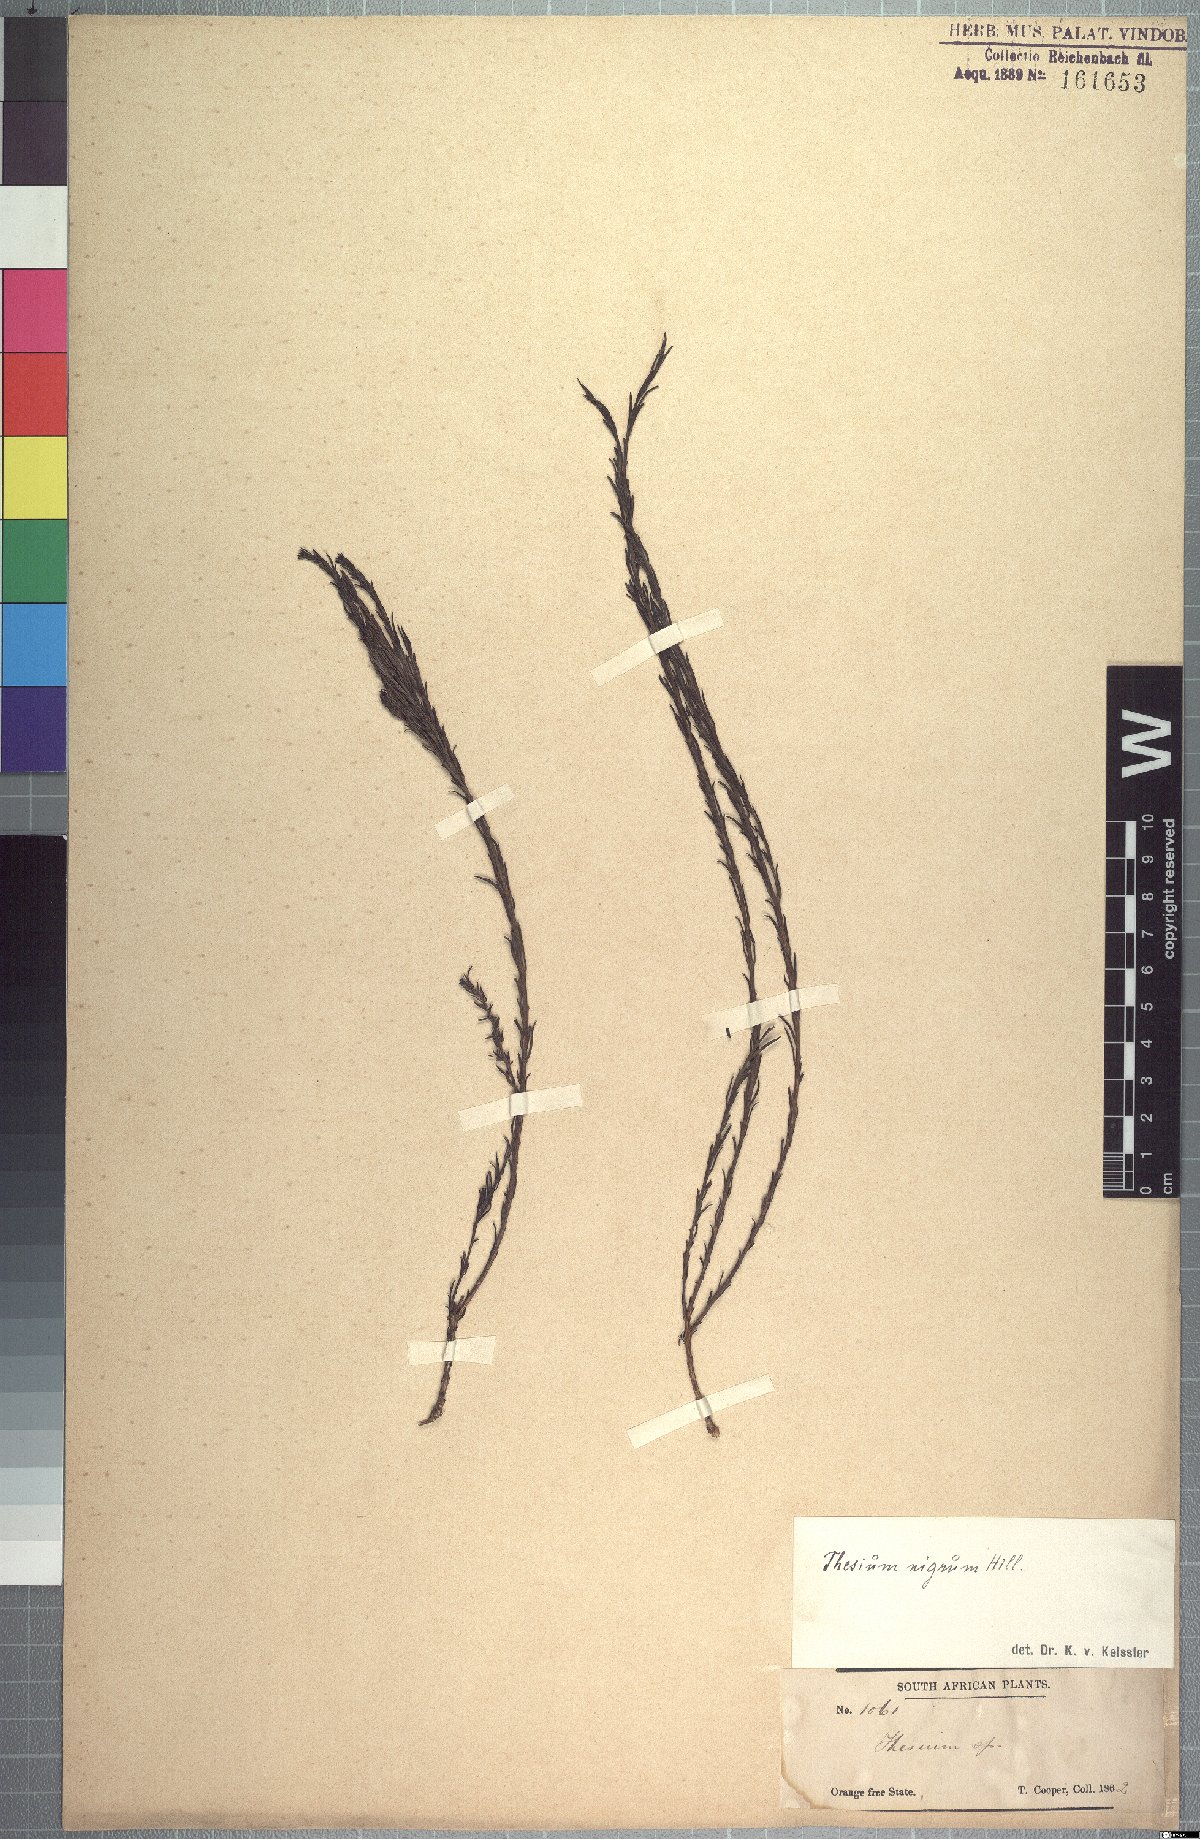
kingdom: Plantae
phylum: Tracheophyta
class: Magnoliopsida
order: Santalales
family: Thesiaceae
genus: Thesium
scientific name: Thesium nigrum
